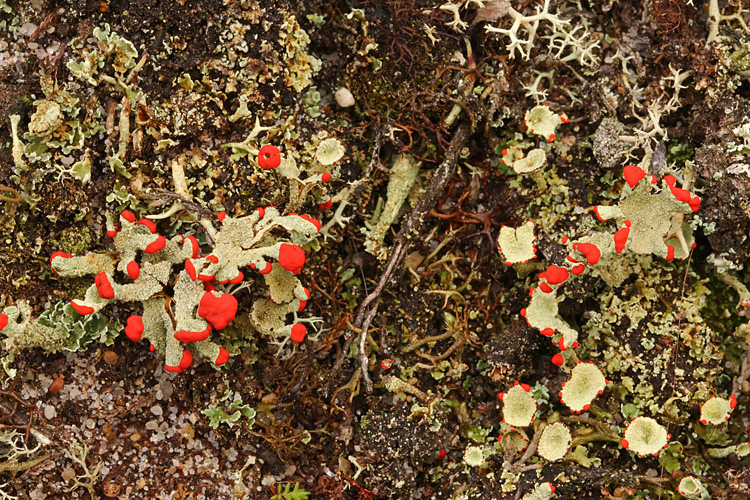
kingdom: Fungi
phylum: Ascomycota
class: Lecanoromycetes
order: Lecanorales
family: Cladoniaceae
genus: Cladonia
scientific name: Cladonia diversa
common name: rød bægerlav
